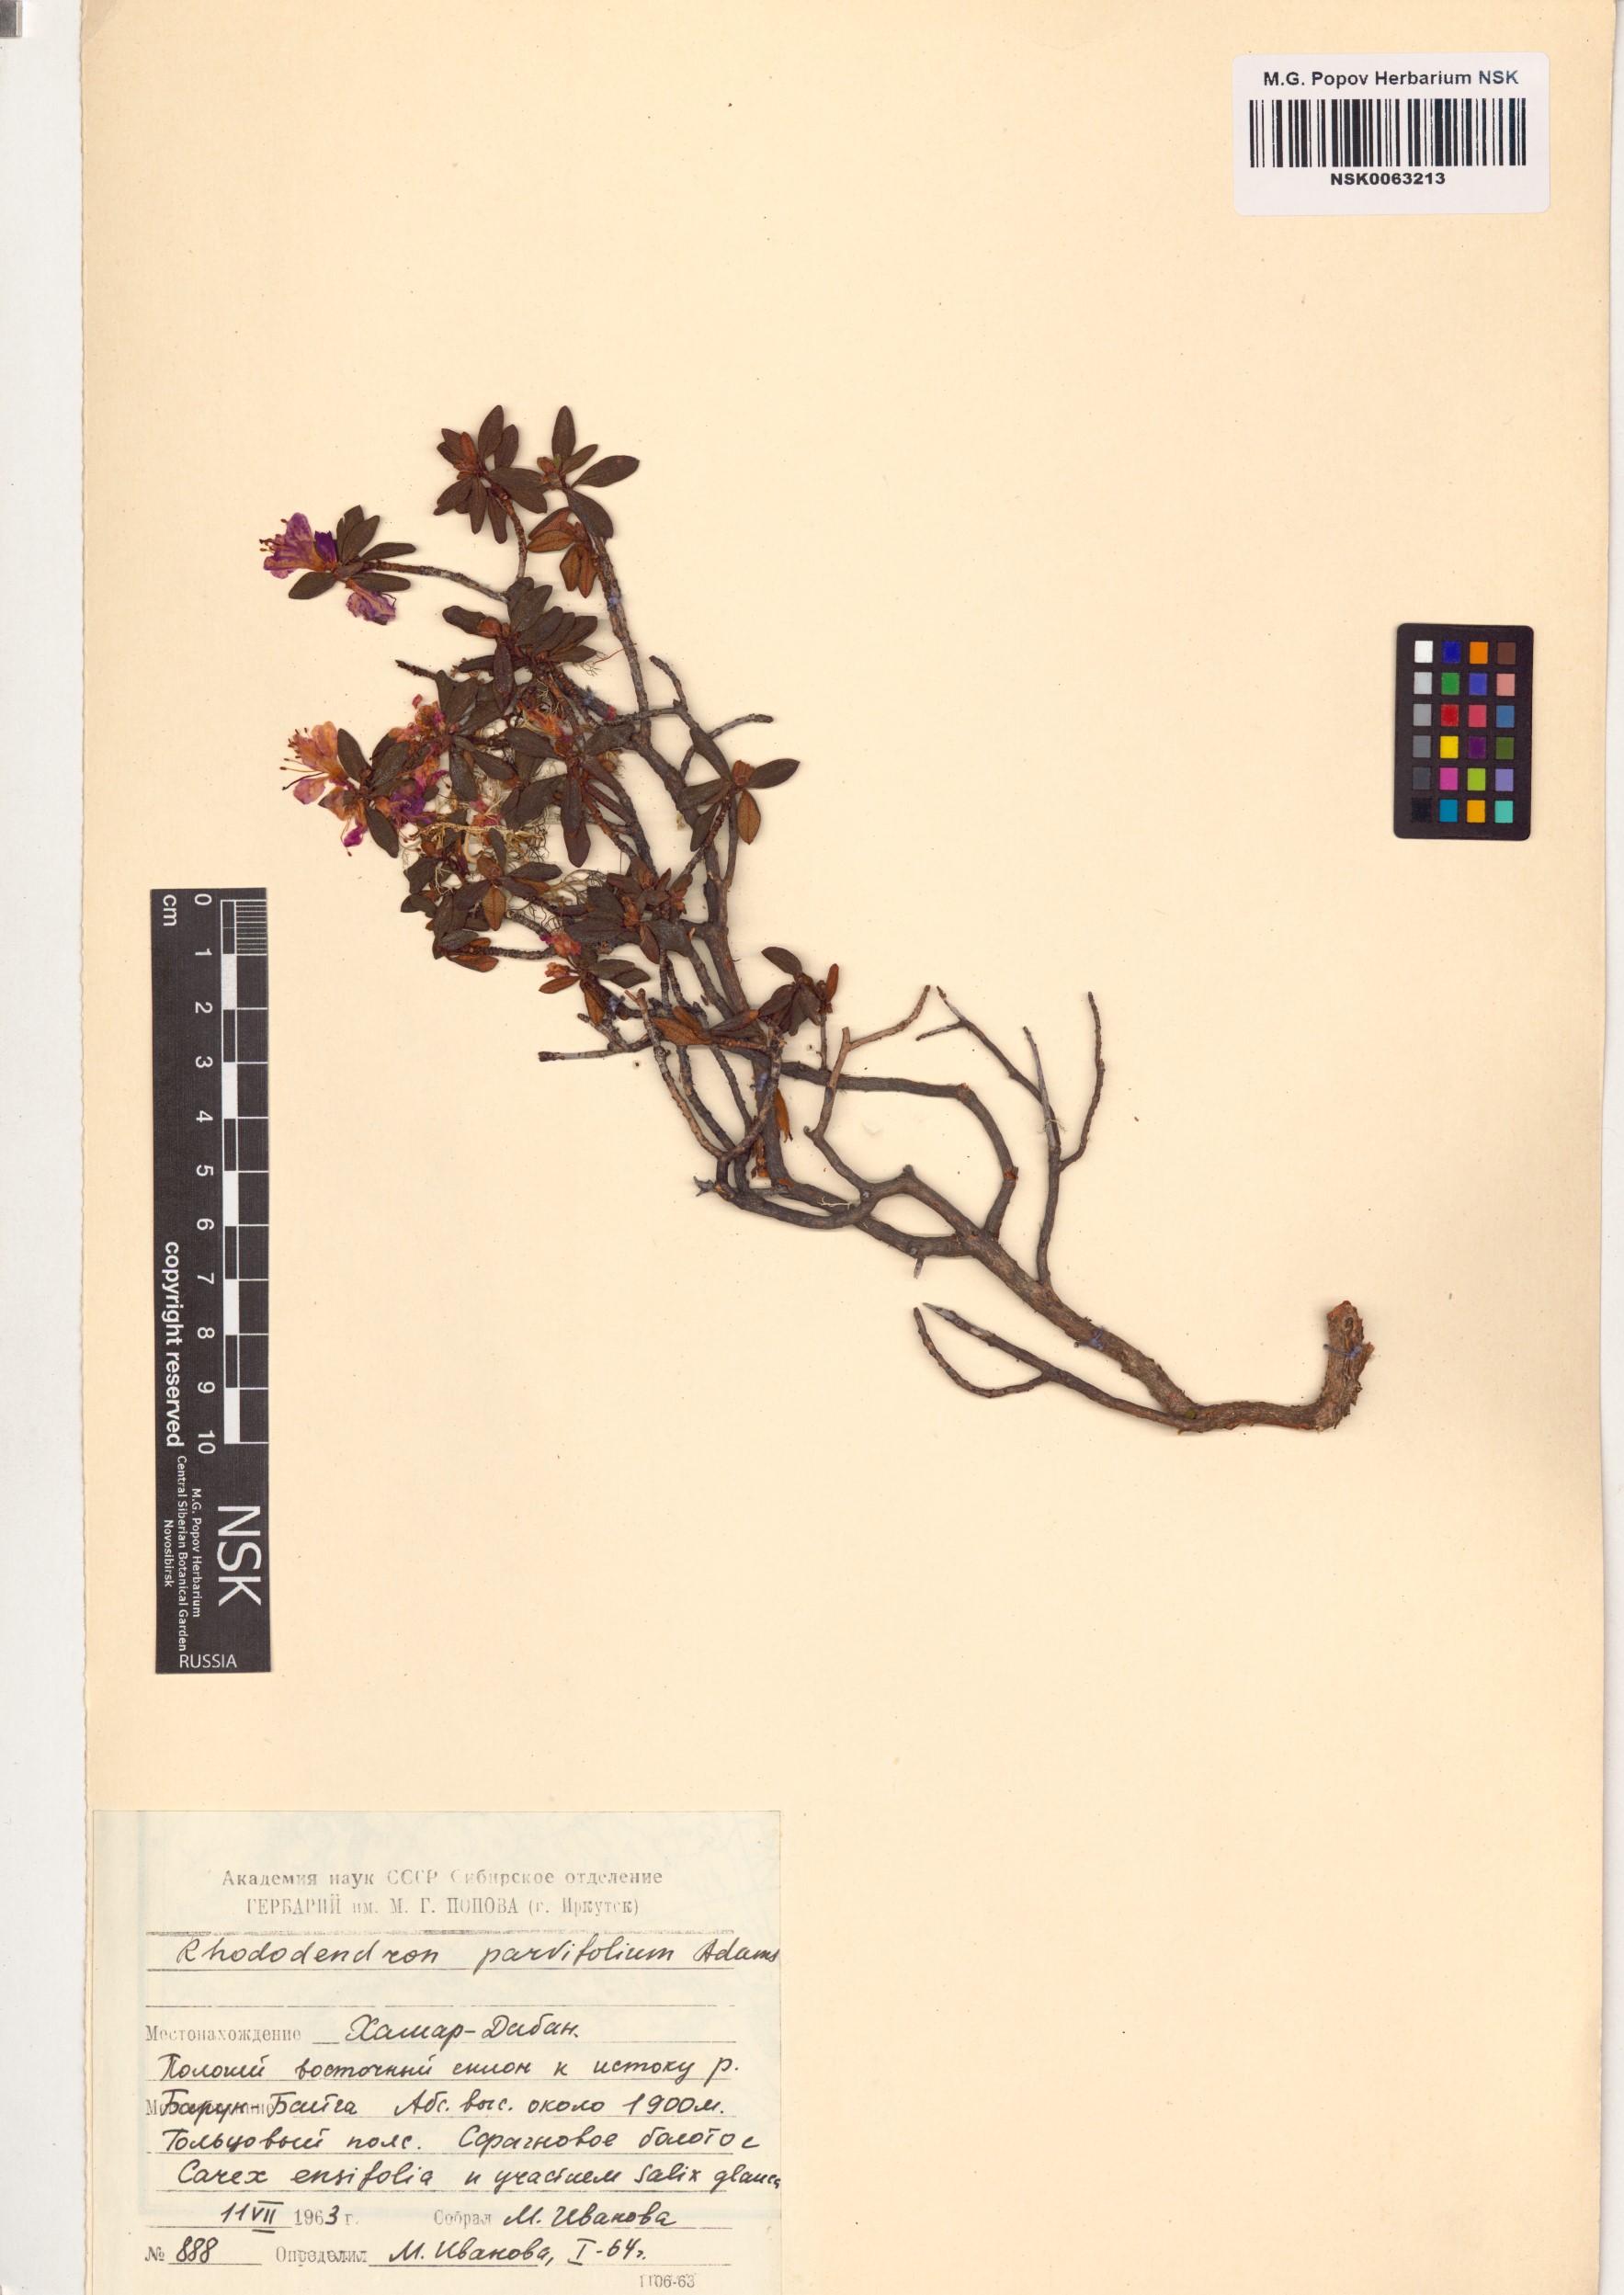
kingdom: Plantae
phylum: Tracheophyta
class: Magnoliopsida
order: Ericales
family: Ericaceae
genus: Rhododendron
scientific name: Rhododendron parvifolium
